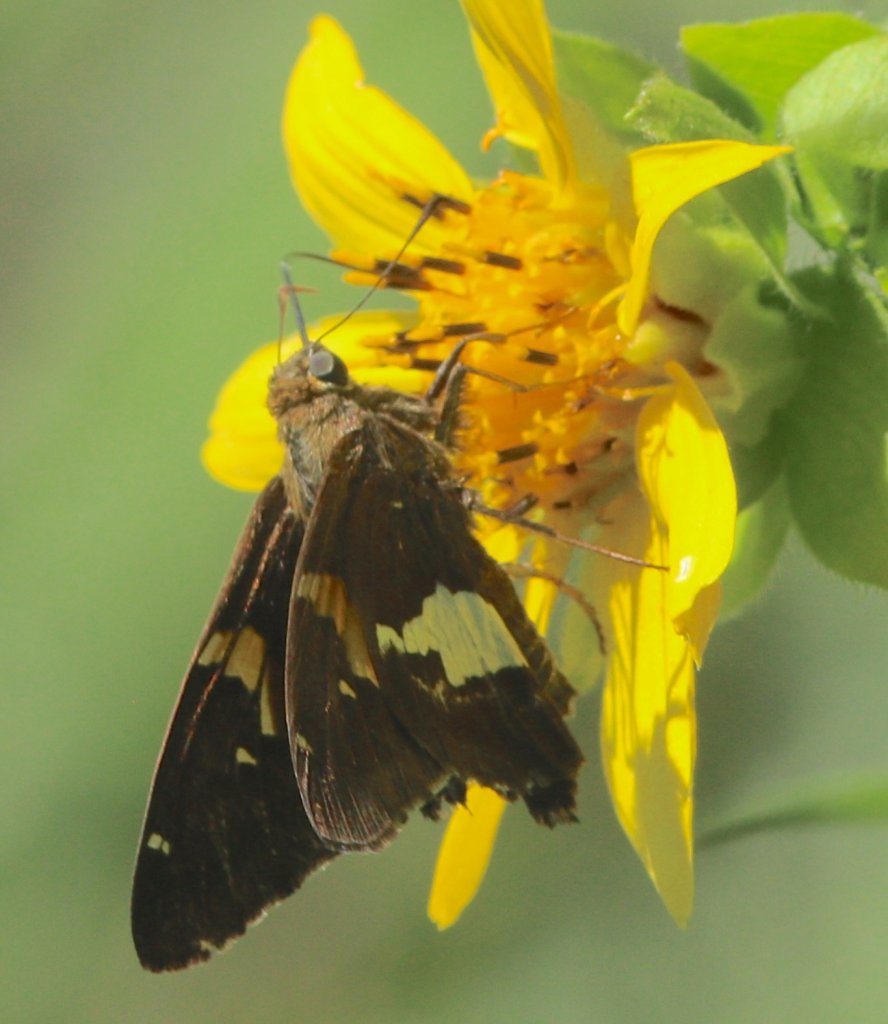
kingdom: Animalia
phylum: Arthropoda
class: Insecta
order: Lepidoptera
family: Hesperiidae
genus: Epargyreus
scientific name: Epargyreus clarus
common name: Silver-spotted Skipper
